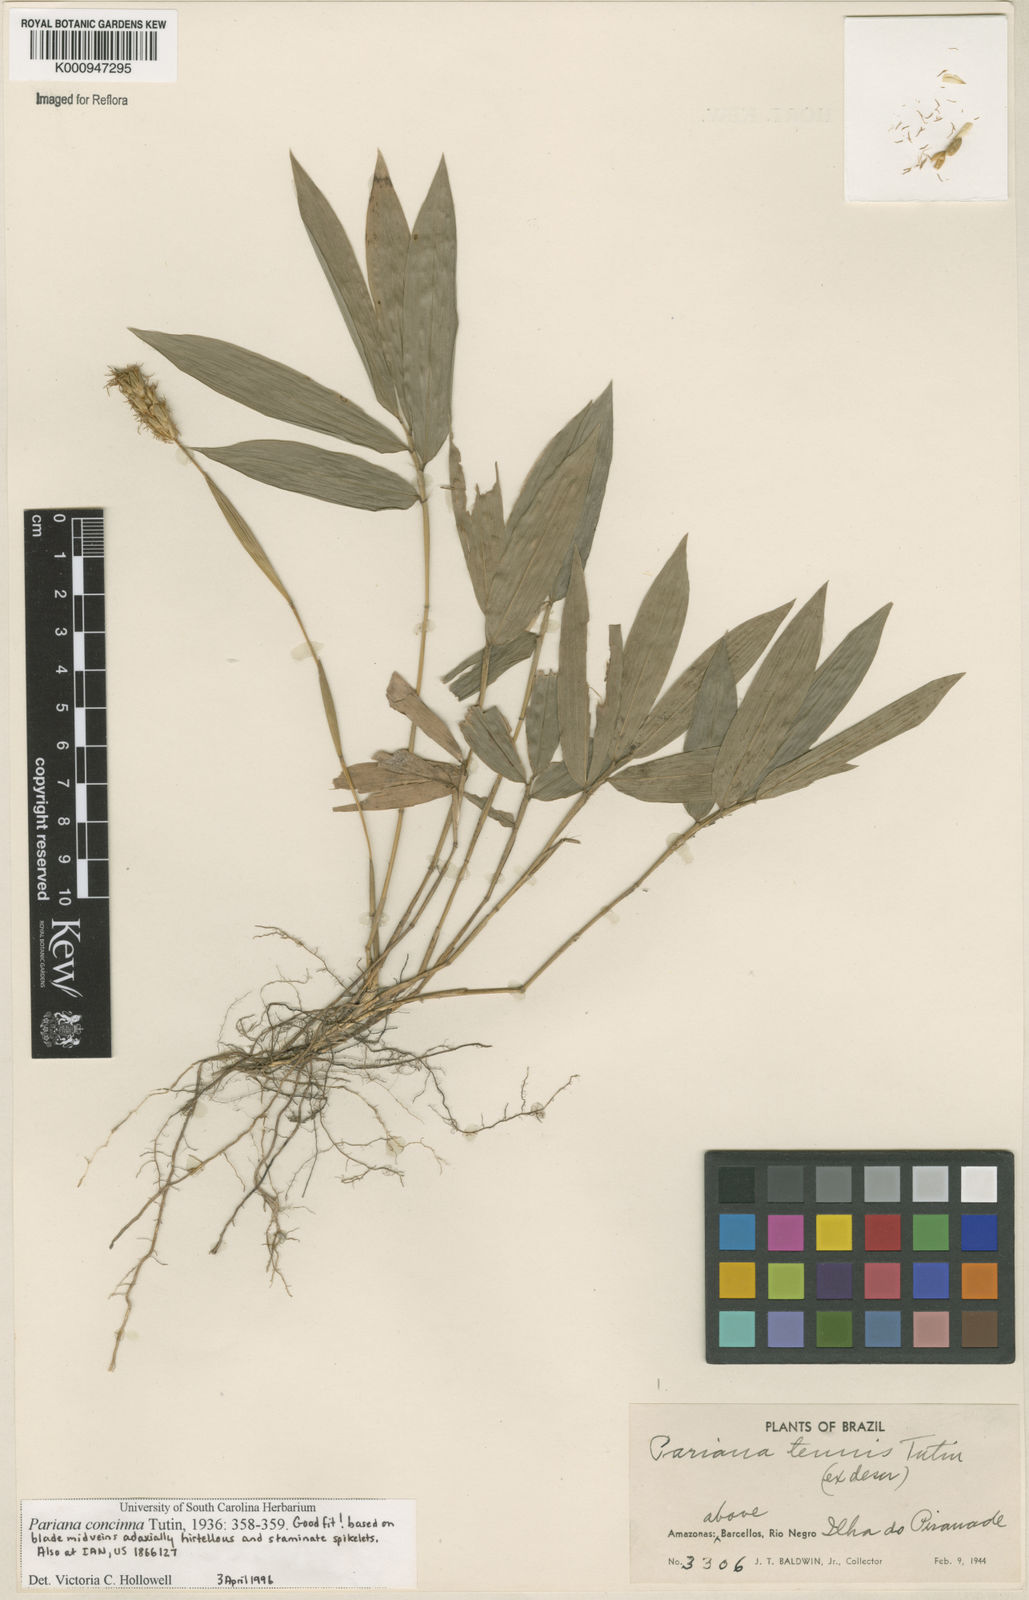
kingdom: Plantae
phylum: Tracheophyta
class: Liliopsida
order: Poales
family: Poaceae
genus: Pariana
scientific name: Pariana concinna
